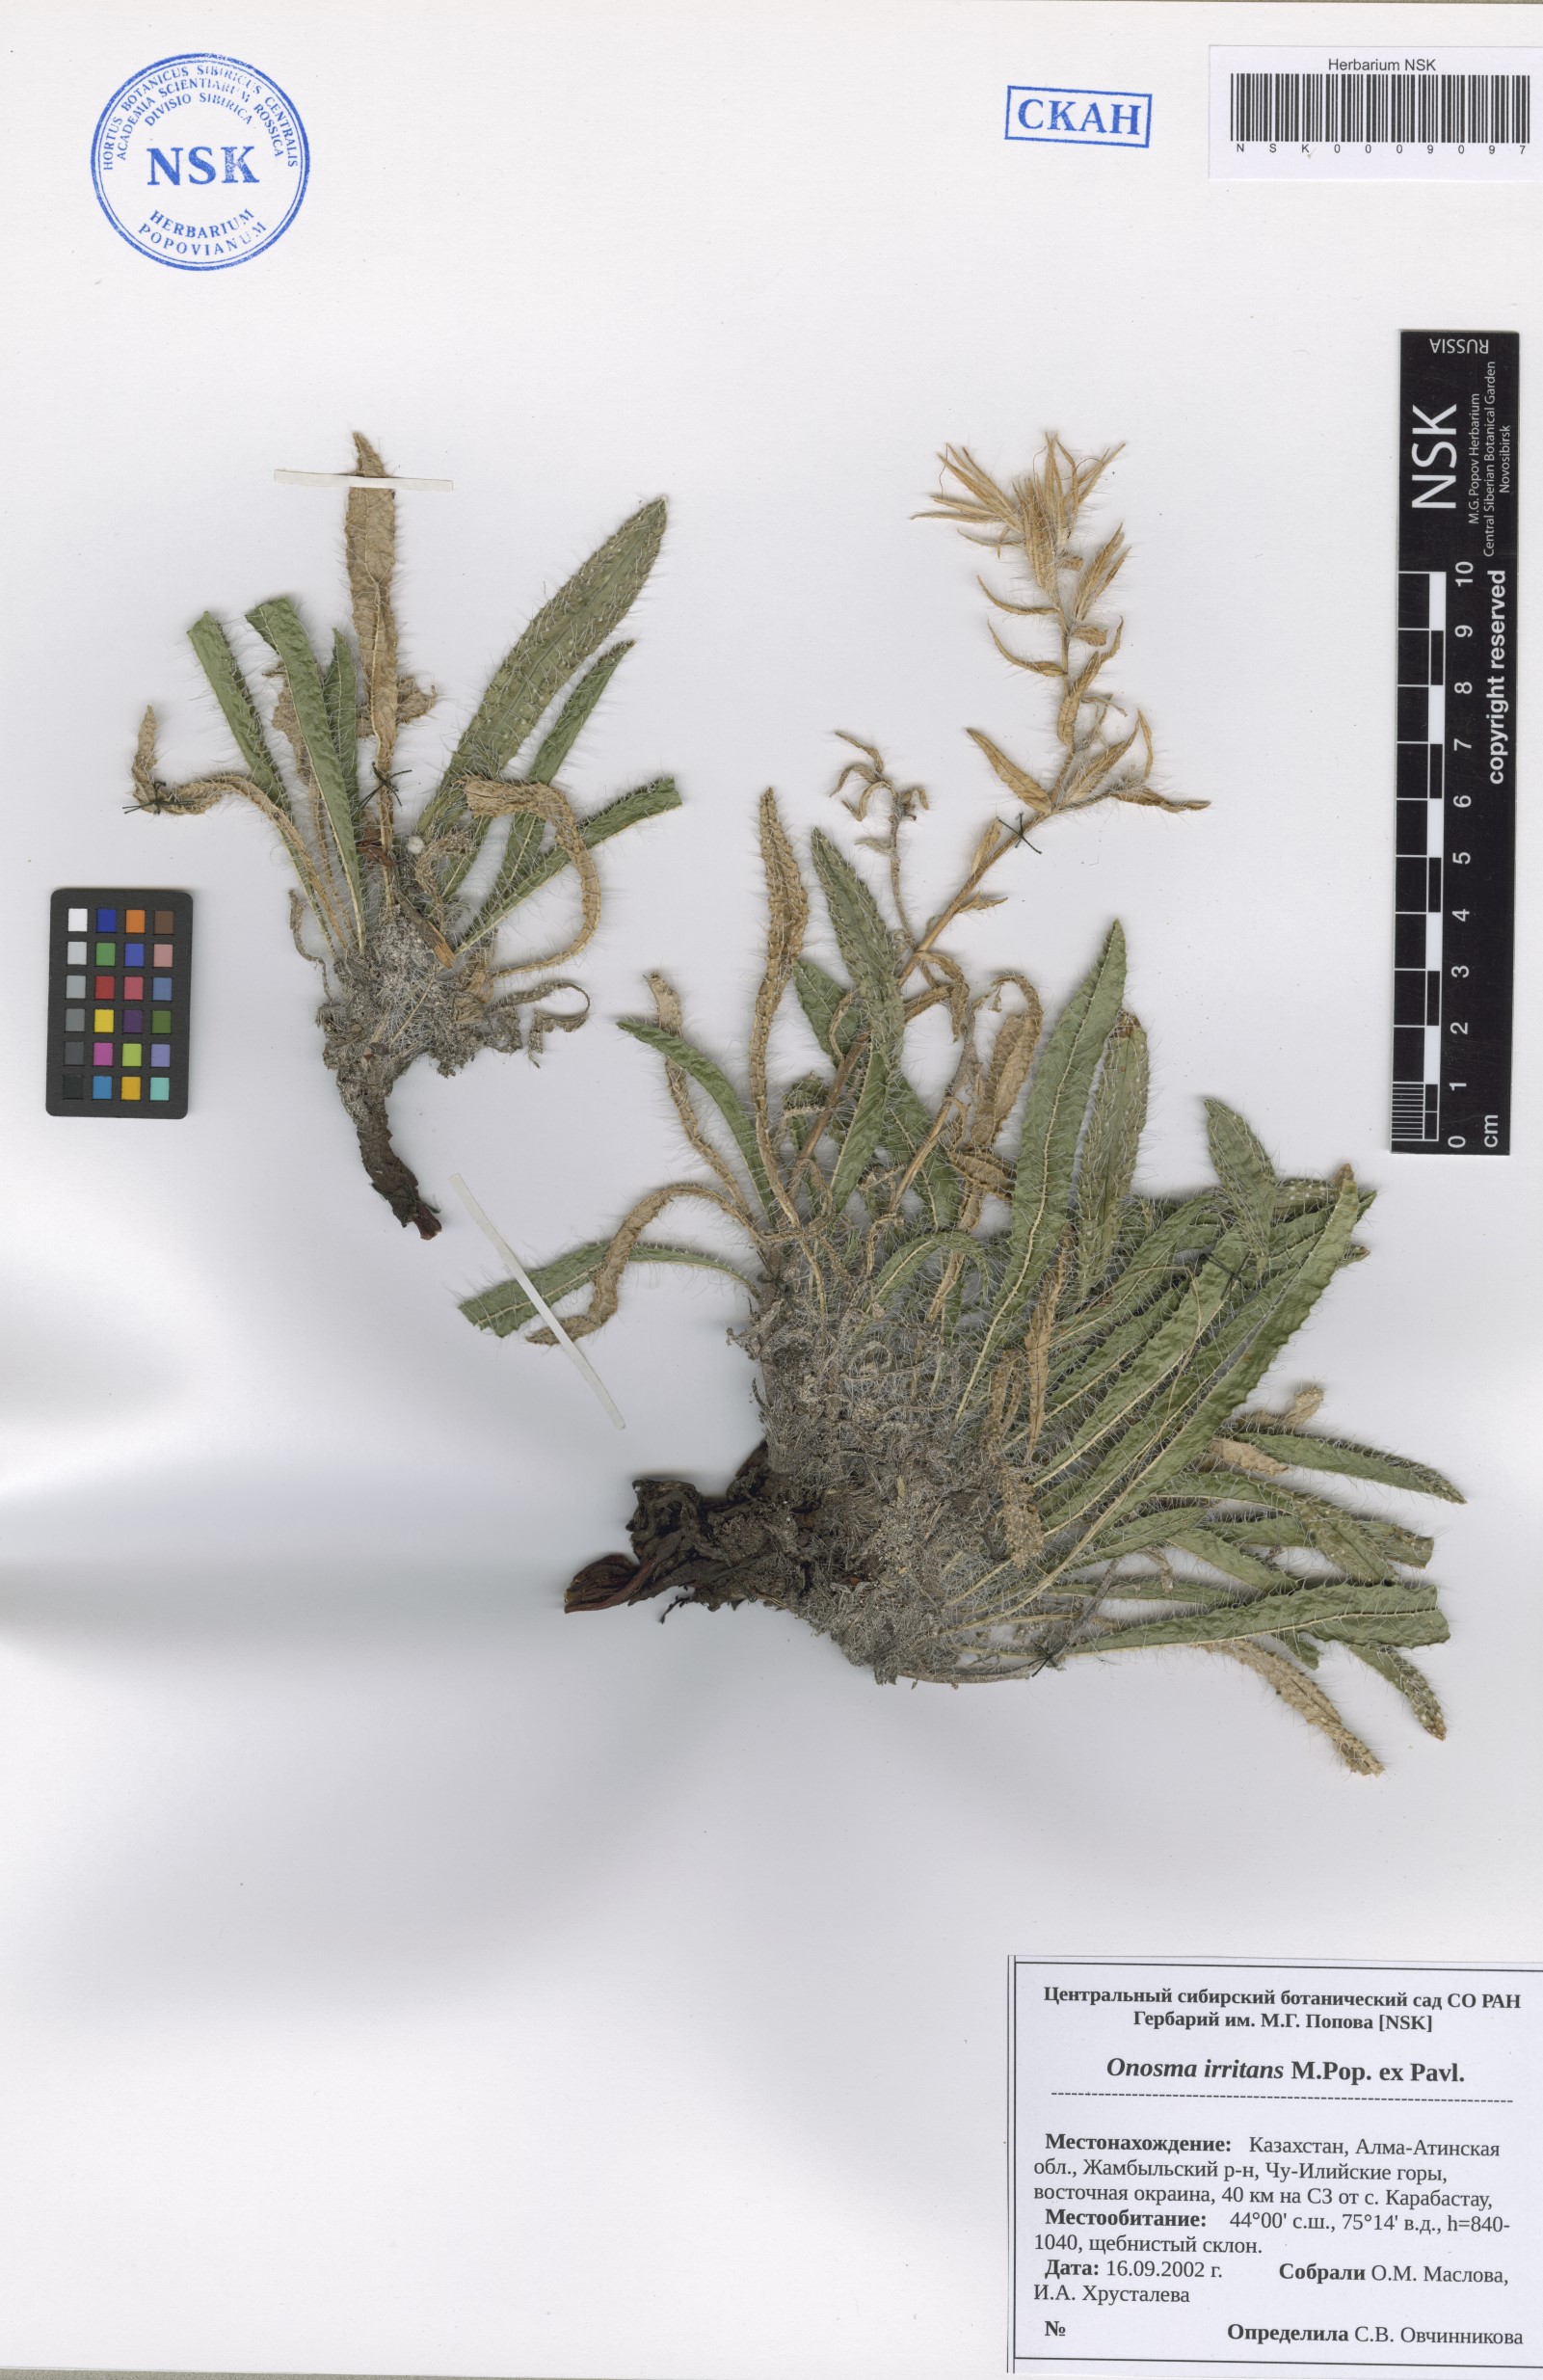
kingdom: Plantae
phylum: Tracheophyta
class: Magnoliopsida
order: Boraginales
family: Boraginaceae
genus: Onosma
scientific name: Onosma irritans
